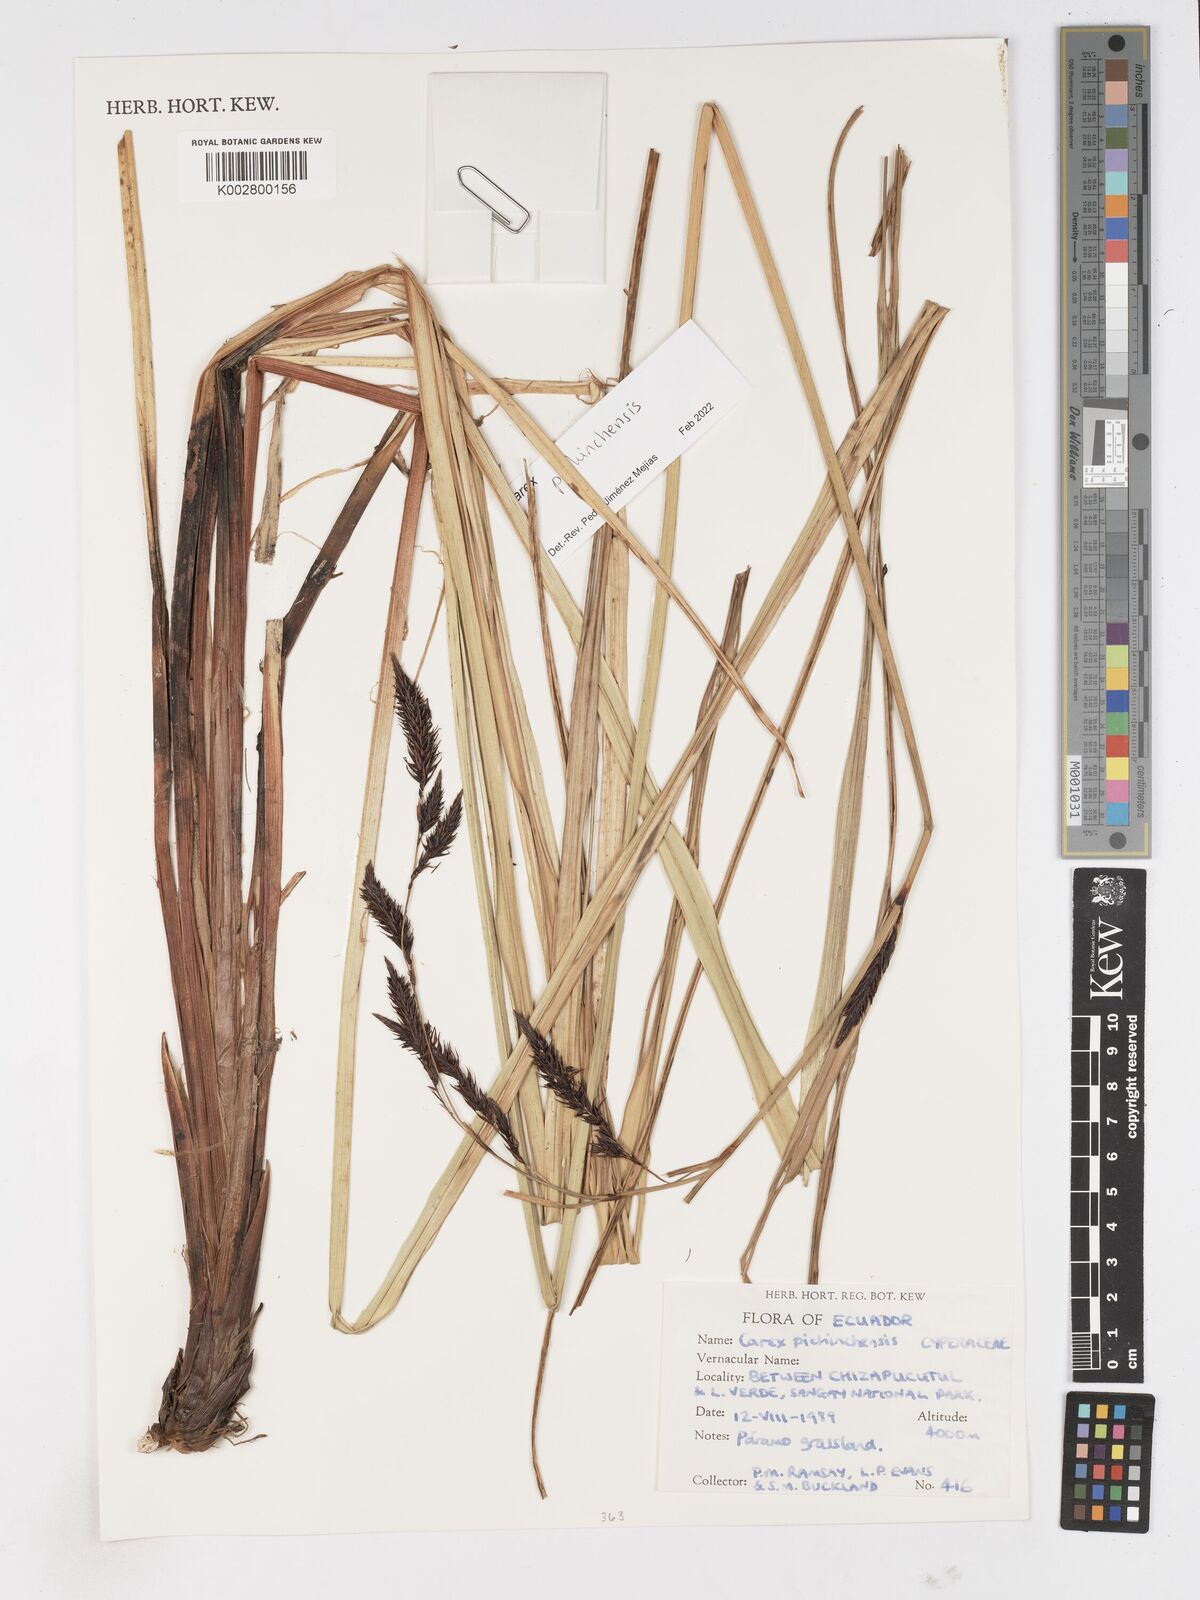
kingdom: Plantae
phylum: Tracheophyta
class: Liliopsida
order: Poales
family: Cyperaceae
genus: Carex
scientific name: Carex pichinchensis
